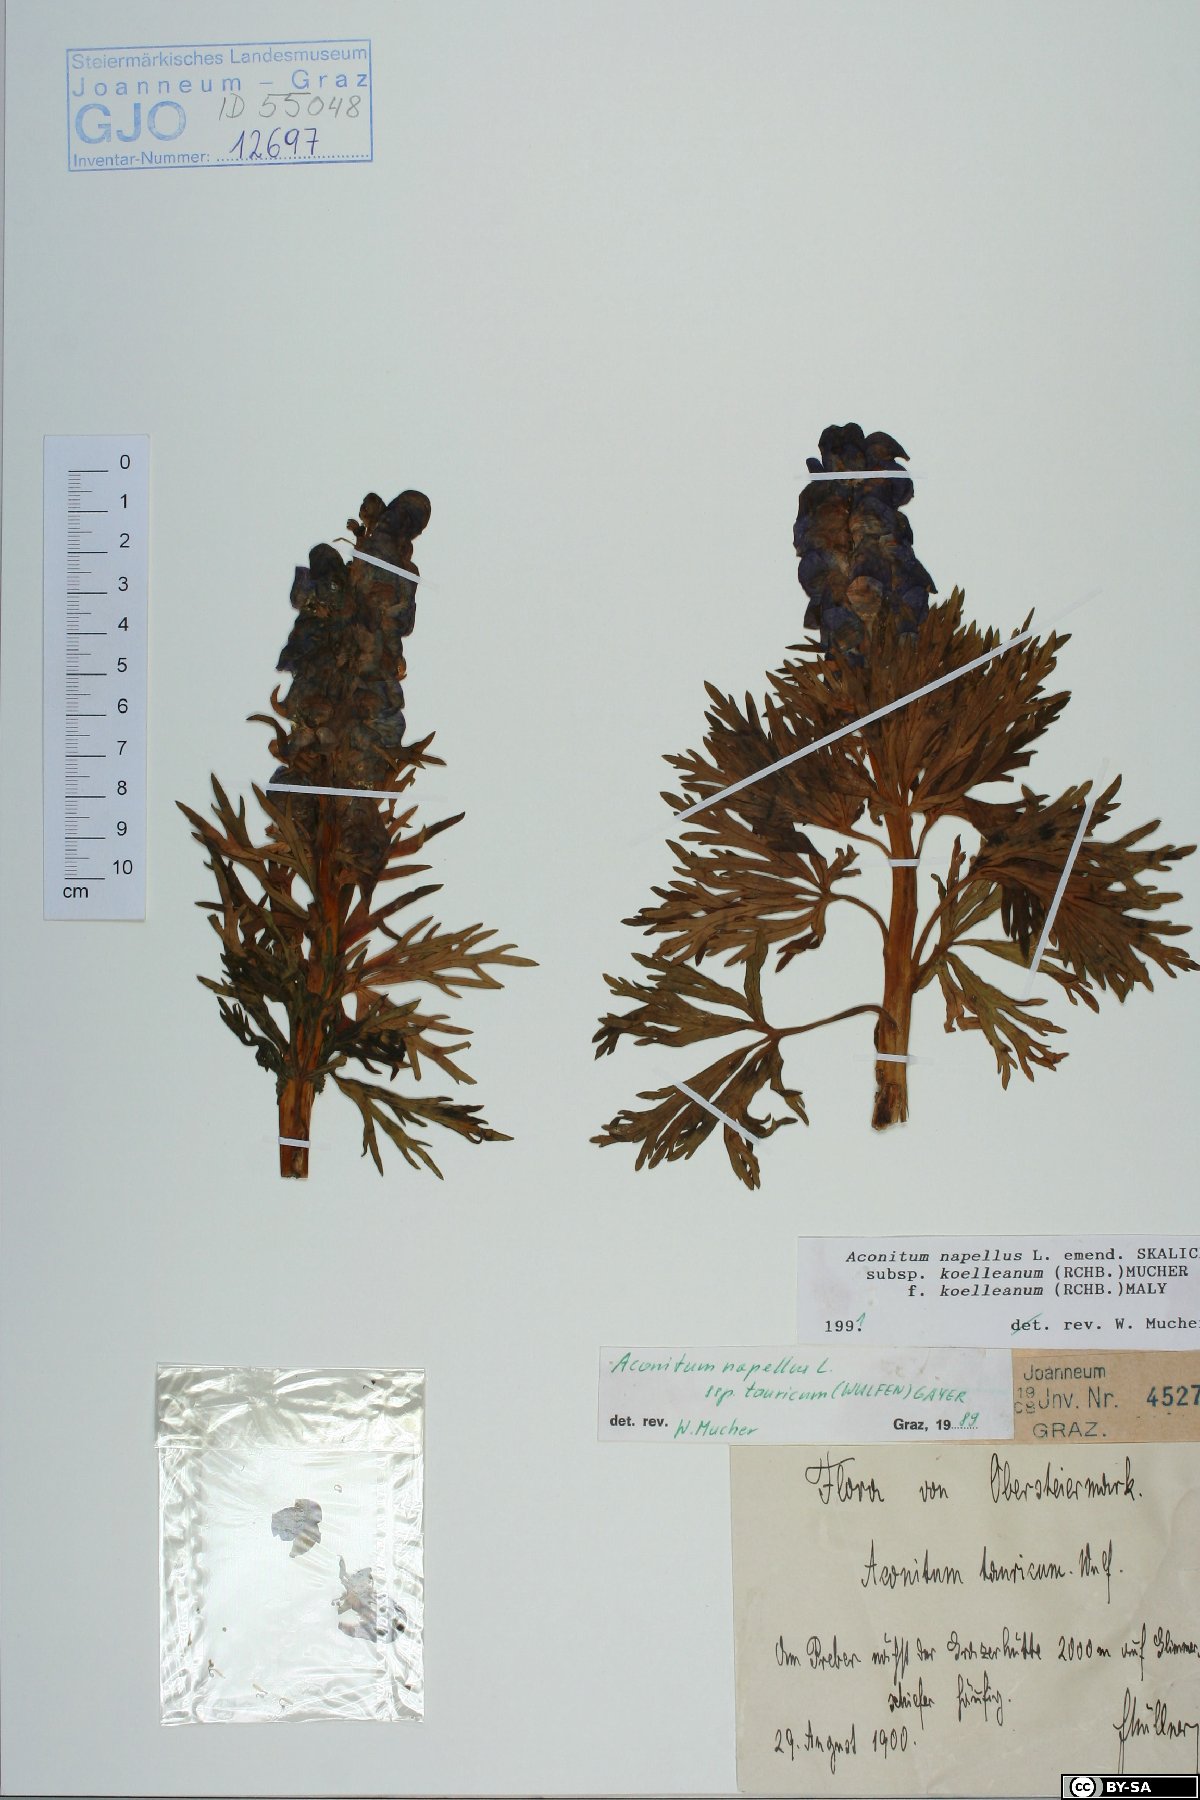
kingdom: Plantae
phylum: Tracheophyta
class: Magnoliopsida
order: Ranunculales
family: Ranunculaceae
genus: Aconitum
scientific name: Aconitum tauricum
